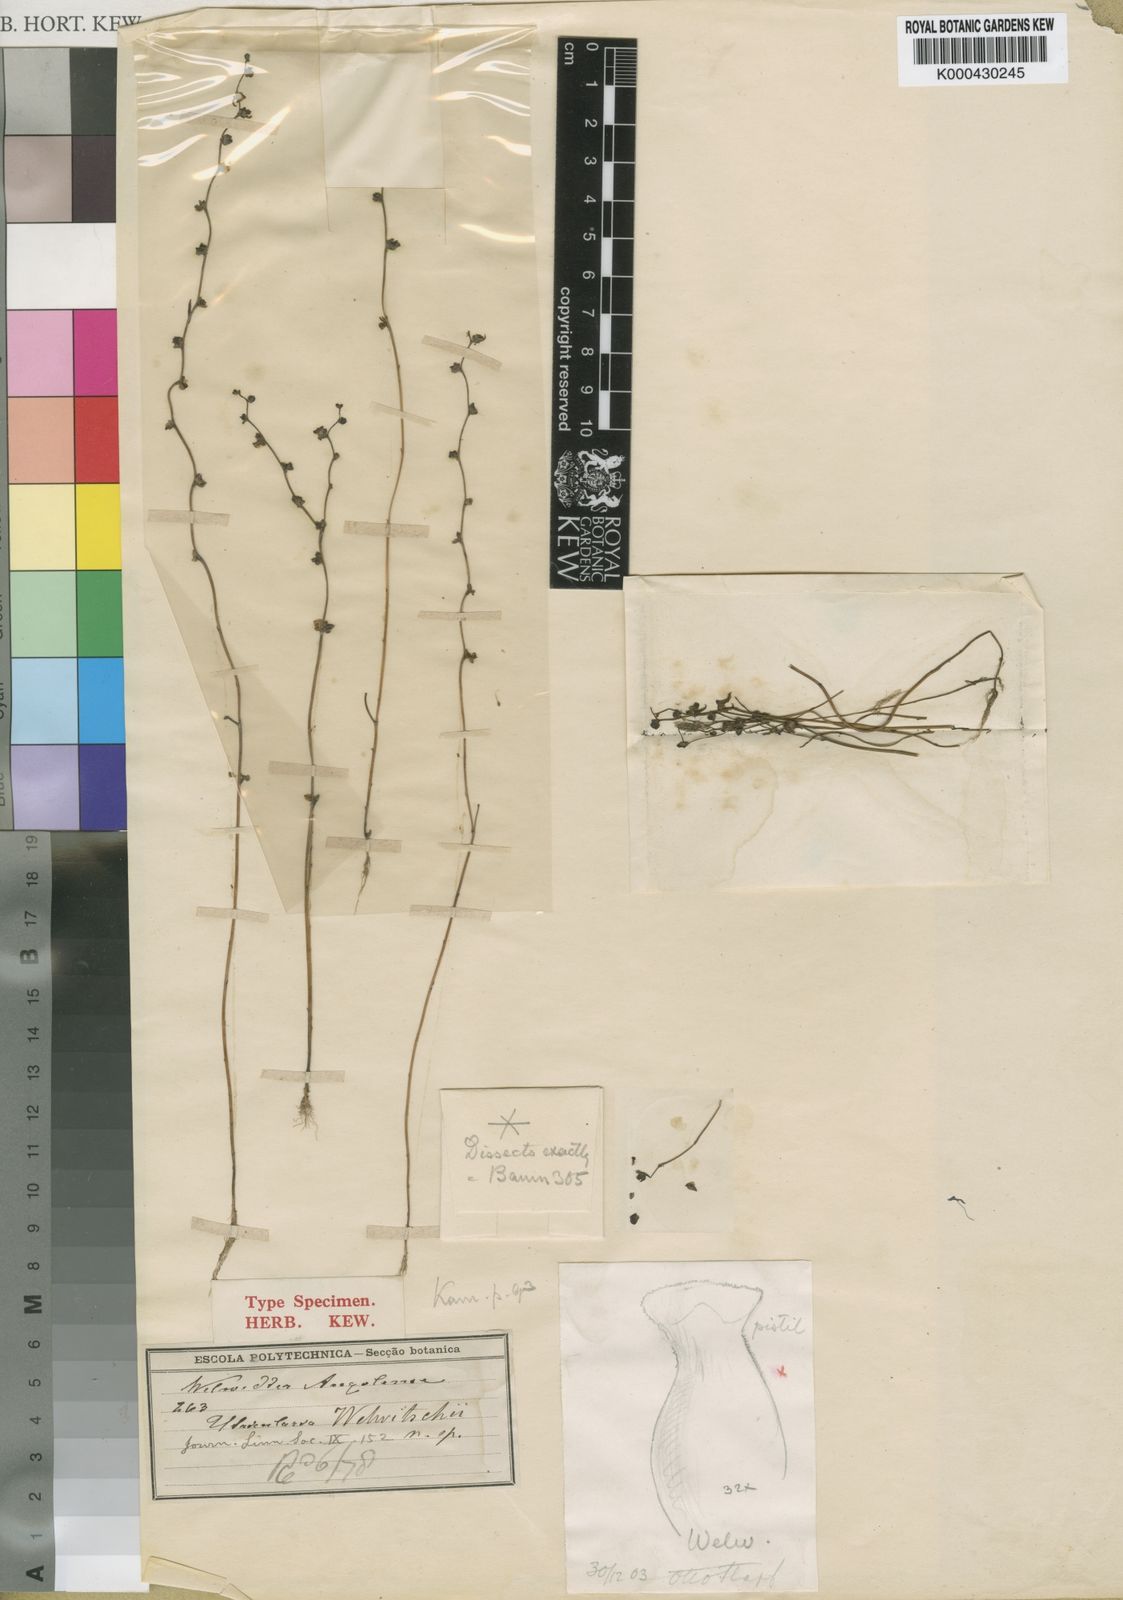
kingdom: Plantae
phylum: Tracheophyta
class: Magnoliopsida
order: Lamiales
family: Lentibulariaceae
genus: Utricularia
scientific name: Utricularia welwitschii
